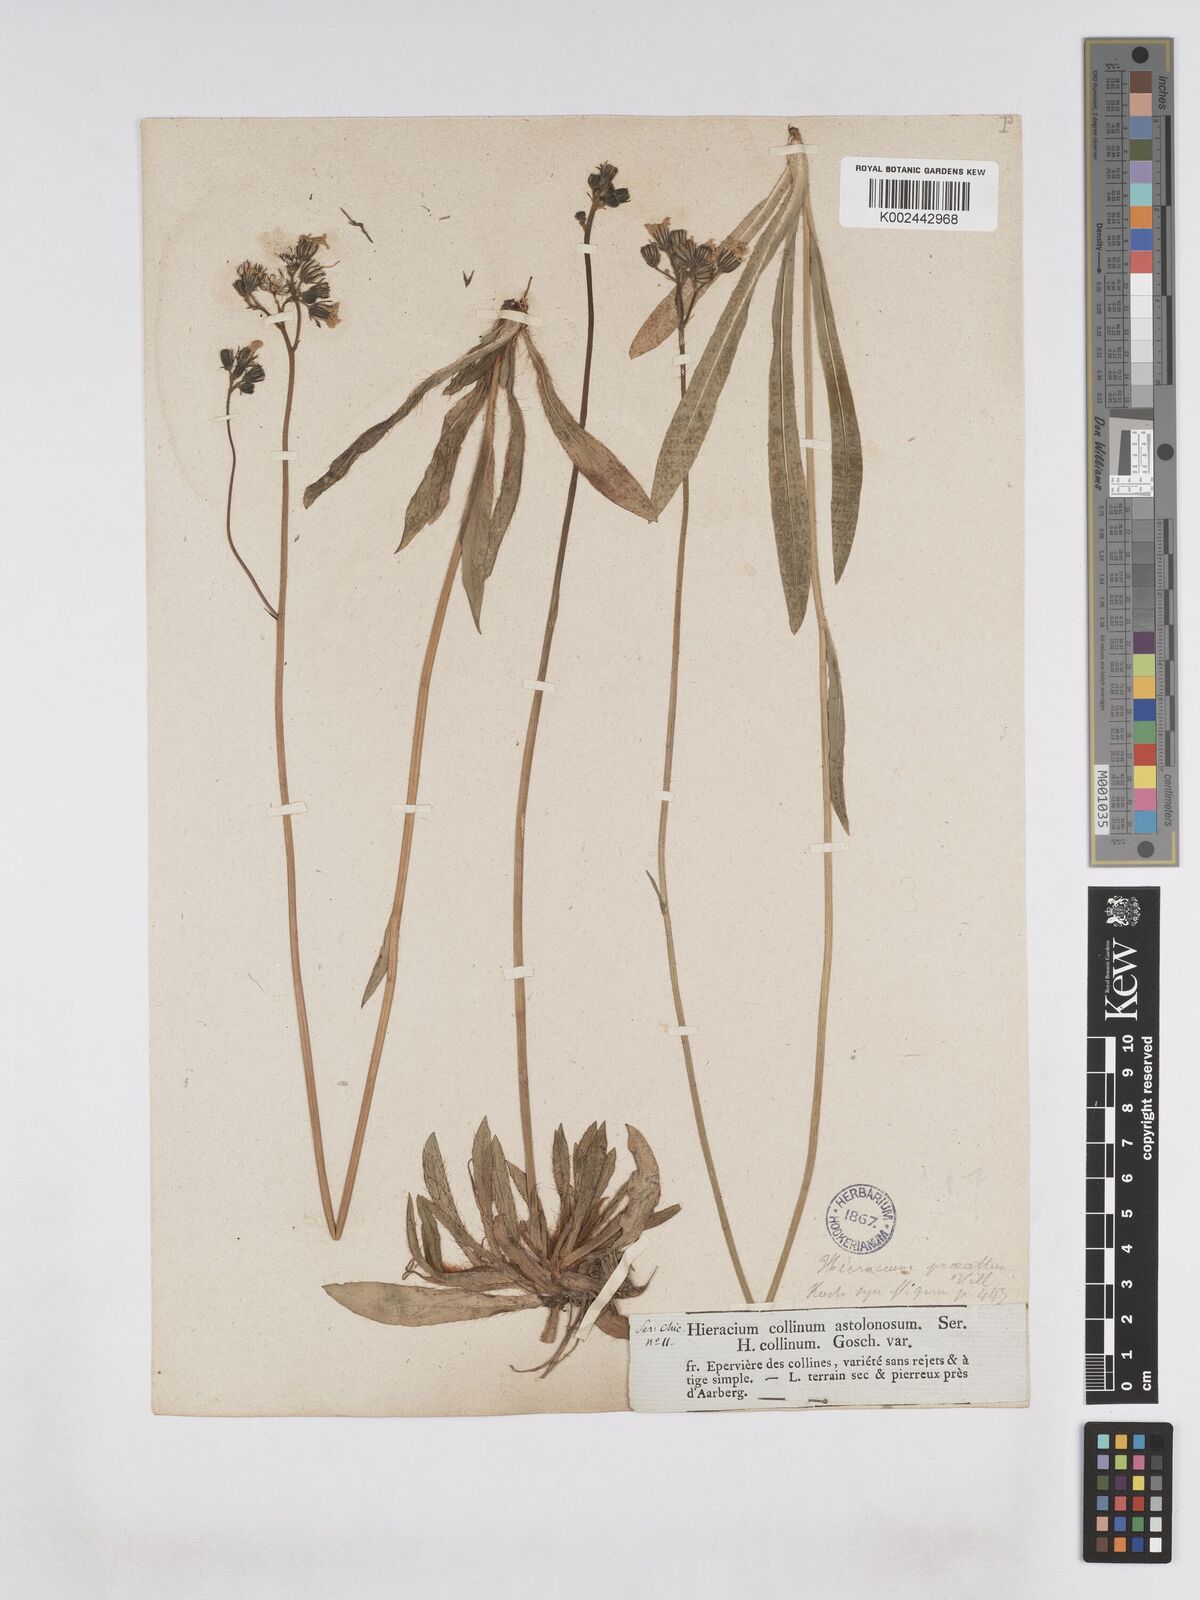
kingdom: Plantae
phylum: Tracheophyta
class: Magnoliopsida
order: Asterales
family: Asteraceae
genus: Pilosella
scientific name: Pilosella piloselloides
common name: Glaucous king-devil
